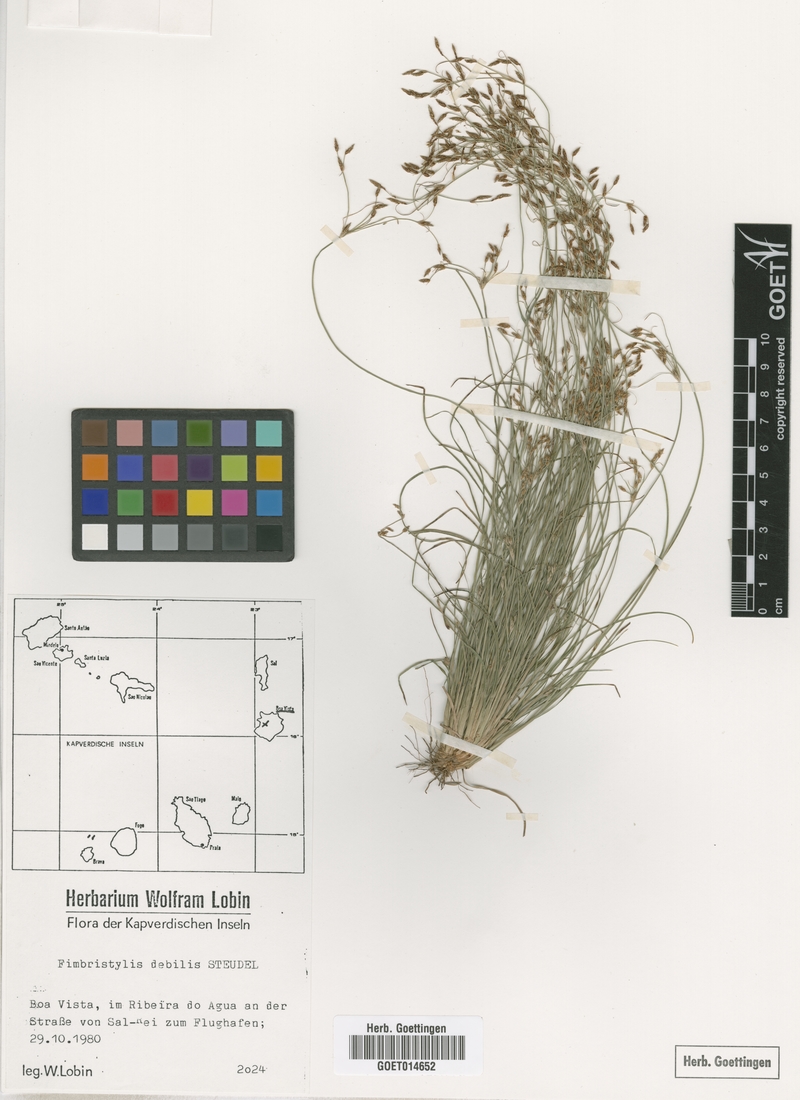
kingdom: Plantae
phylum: Tracheophyta
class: Liliopsida
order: Poales
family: Cyperaceae
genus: Fimbristylis
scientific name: Fimbristylis debilis
